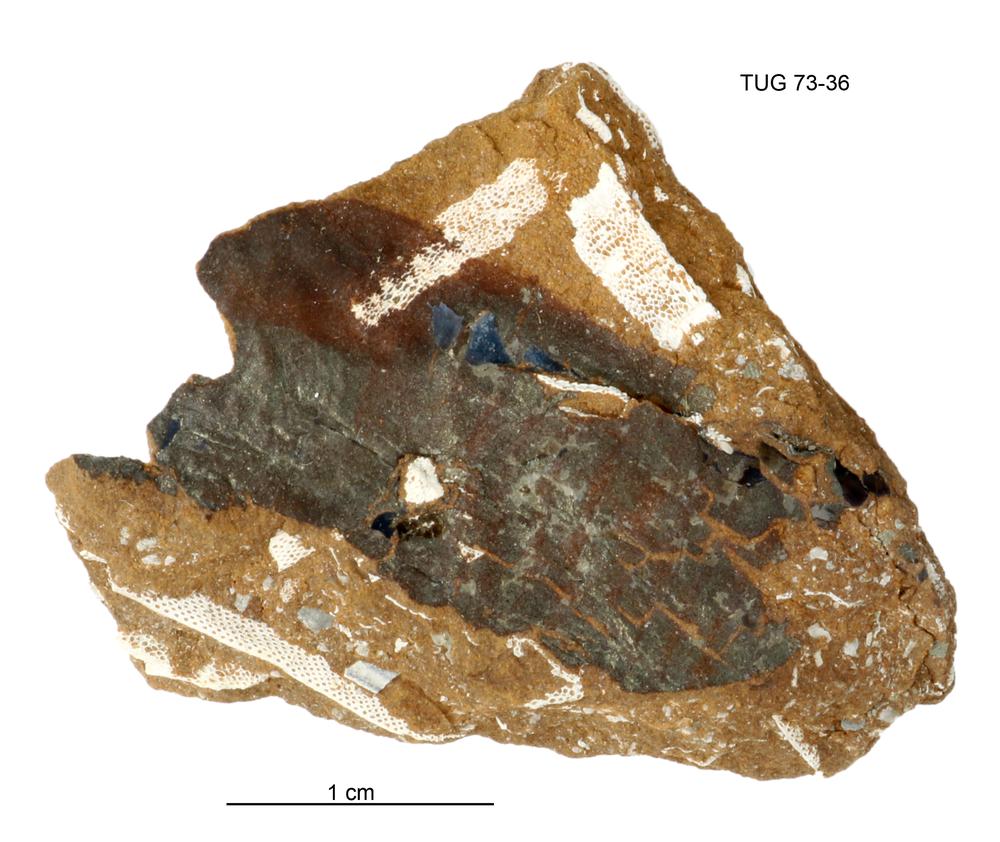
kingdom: Animalia
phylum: Cnidaria
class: Scyphozoa
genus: Sphenothallus
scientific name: Sphenothallus
